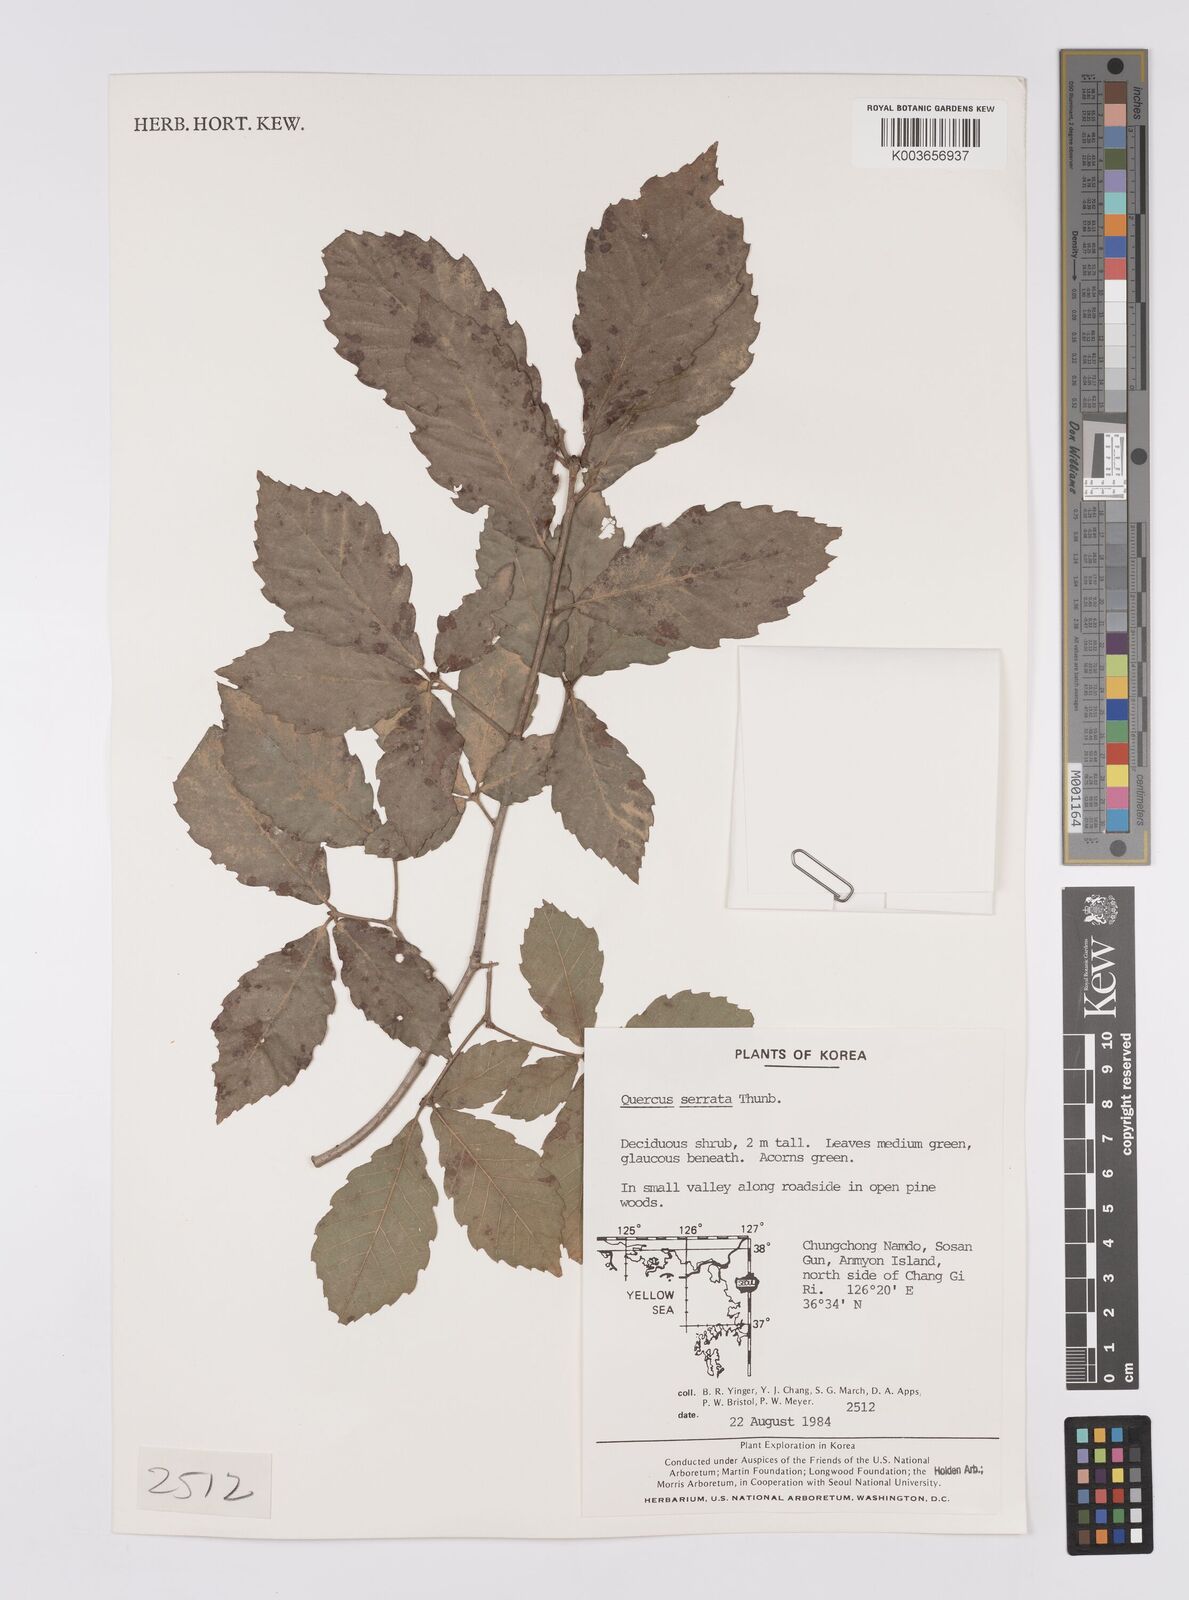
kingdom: Plantae
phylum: Tracheophyta
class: Magnoliopsida
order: Fagales
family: Fagaceae
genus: Quercus
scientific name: Quercus serrata
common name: Bao li
